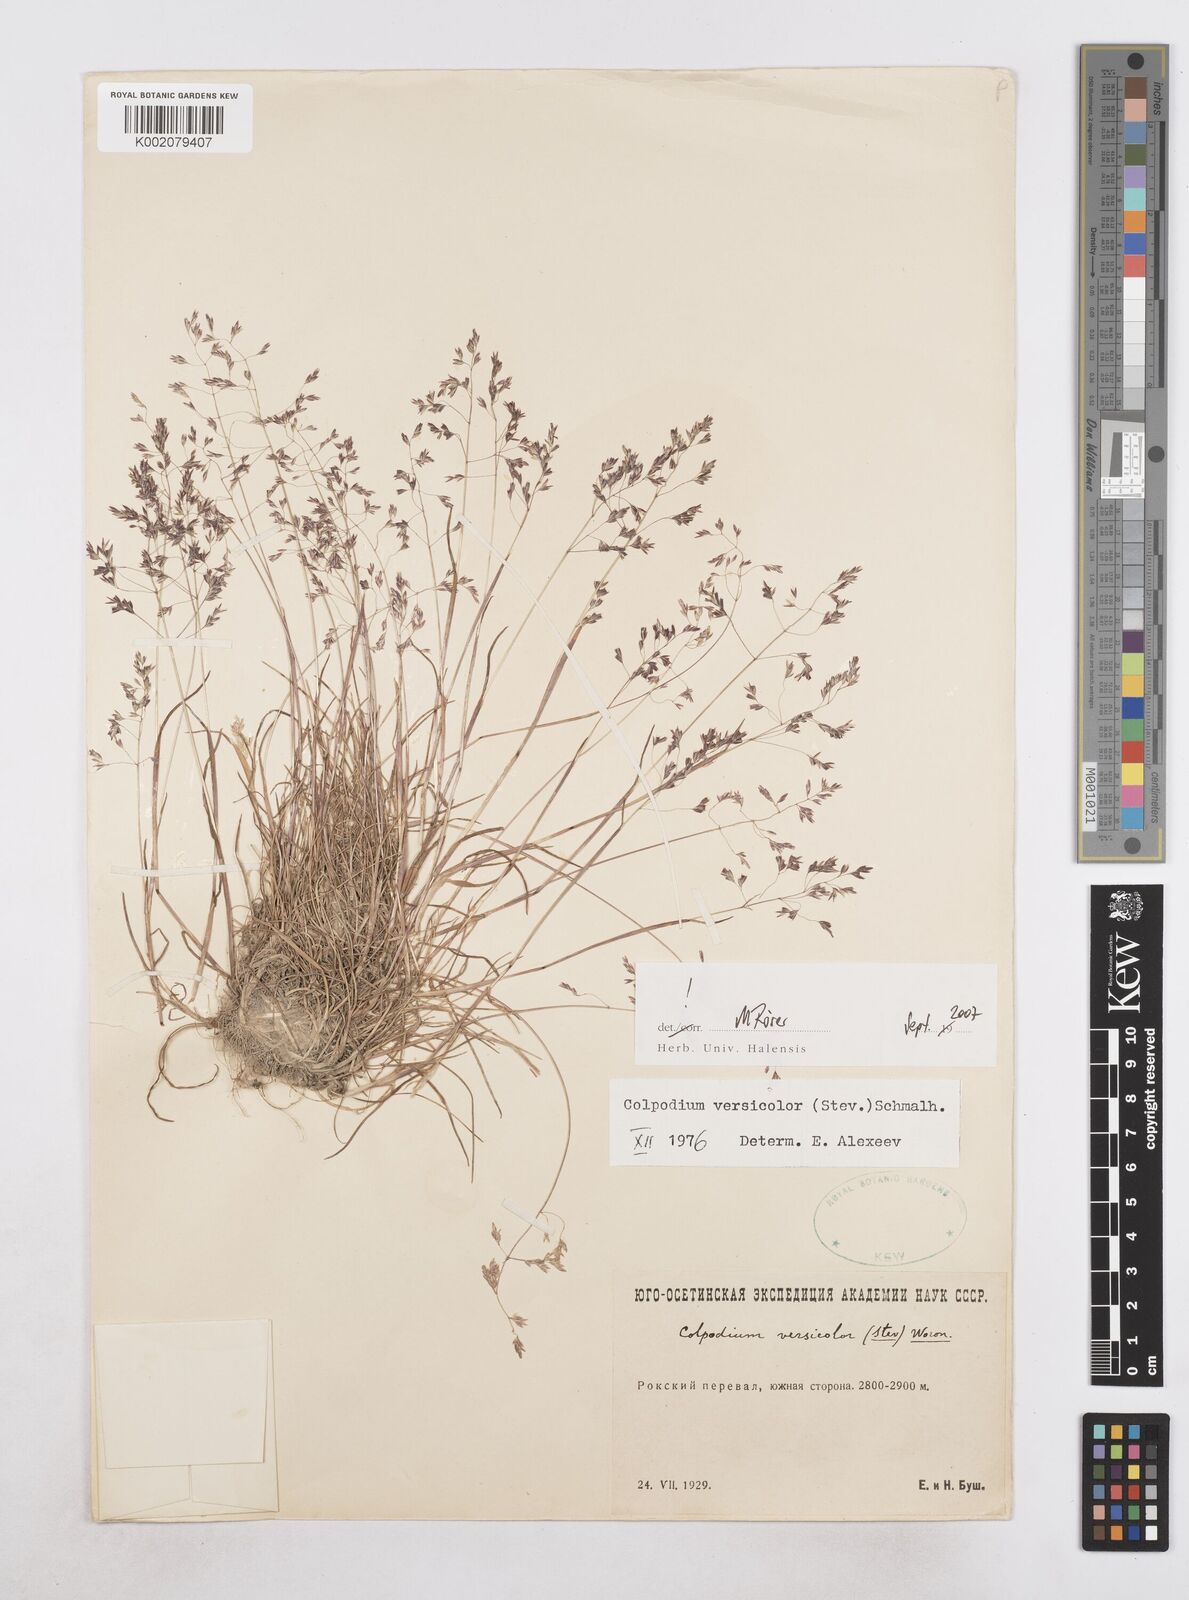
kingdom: Plantae
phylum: Tracheophyta
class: Liliopsida
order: Poales
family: Poaceae
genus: Colpodium
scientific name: Colpodium versicolor
